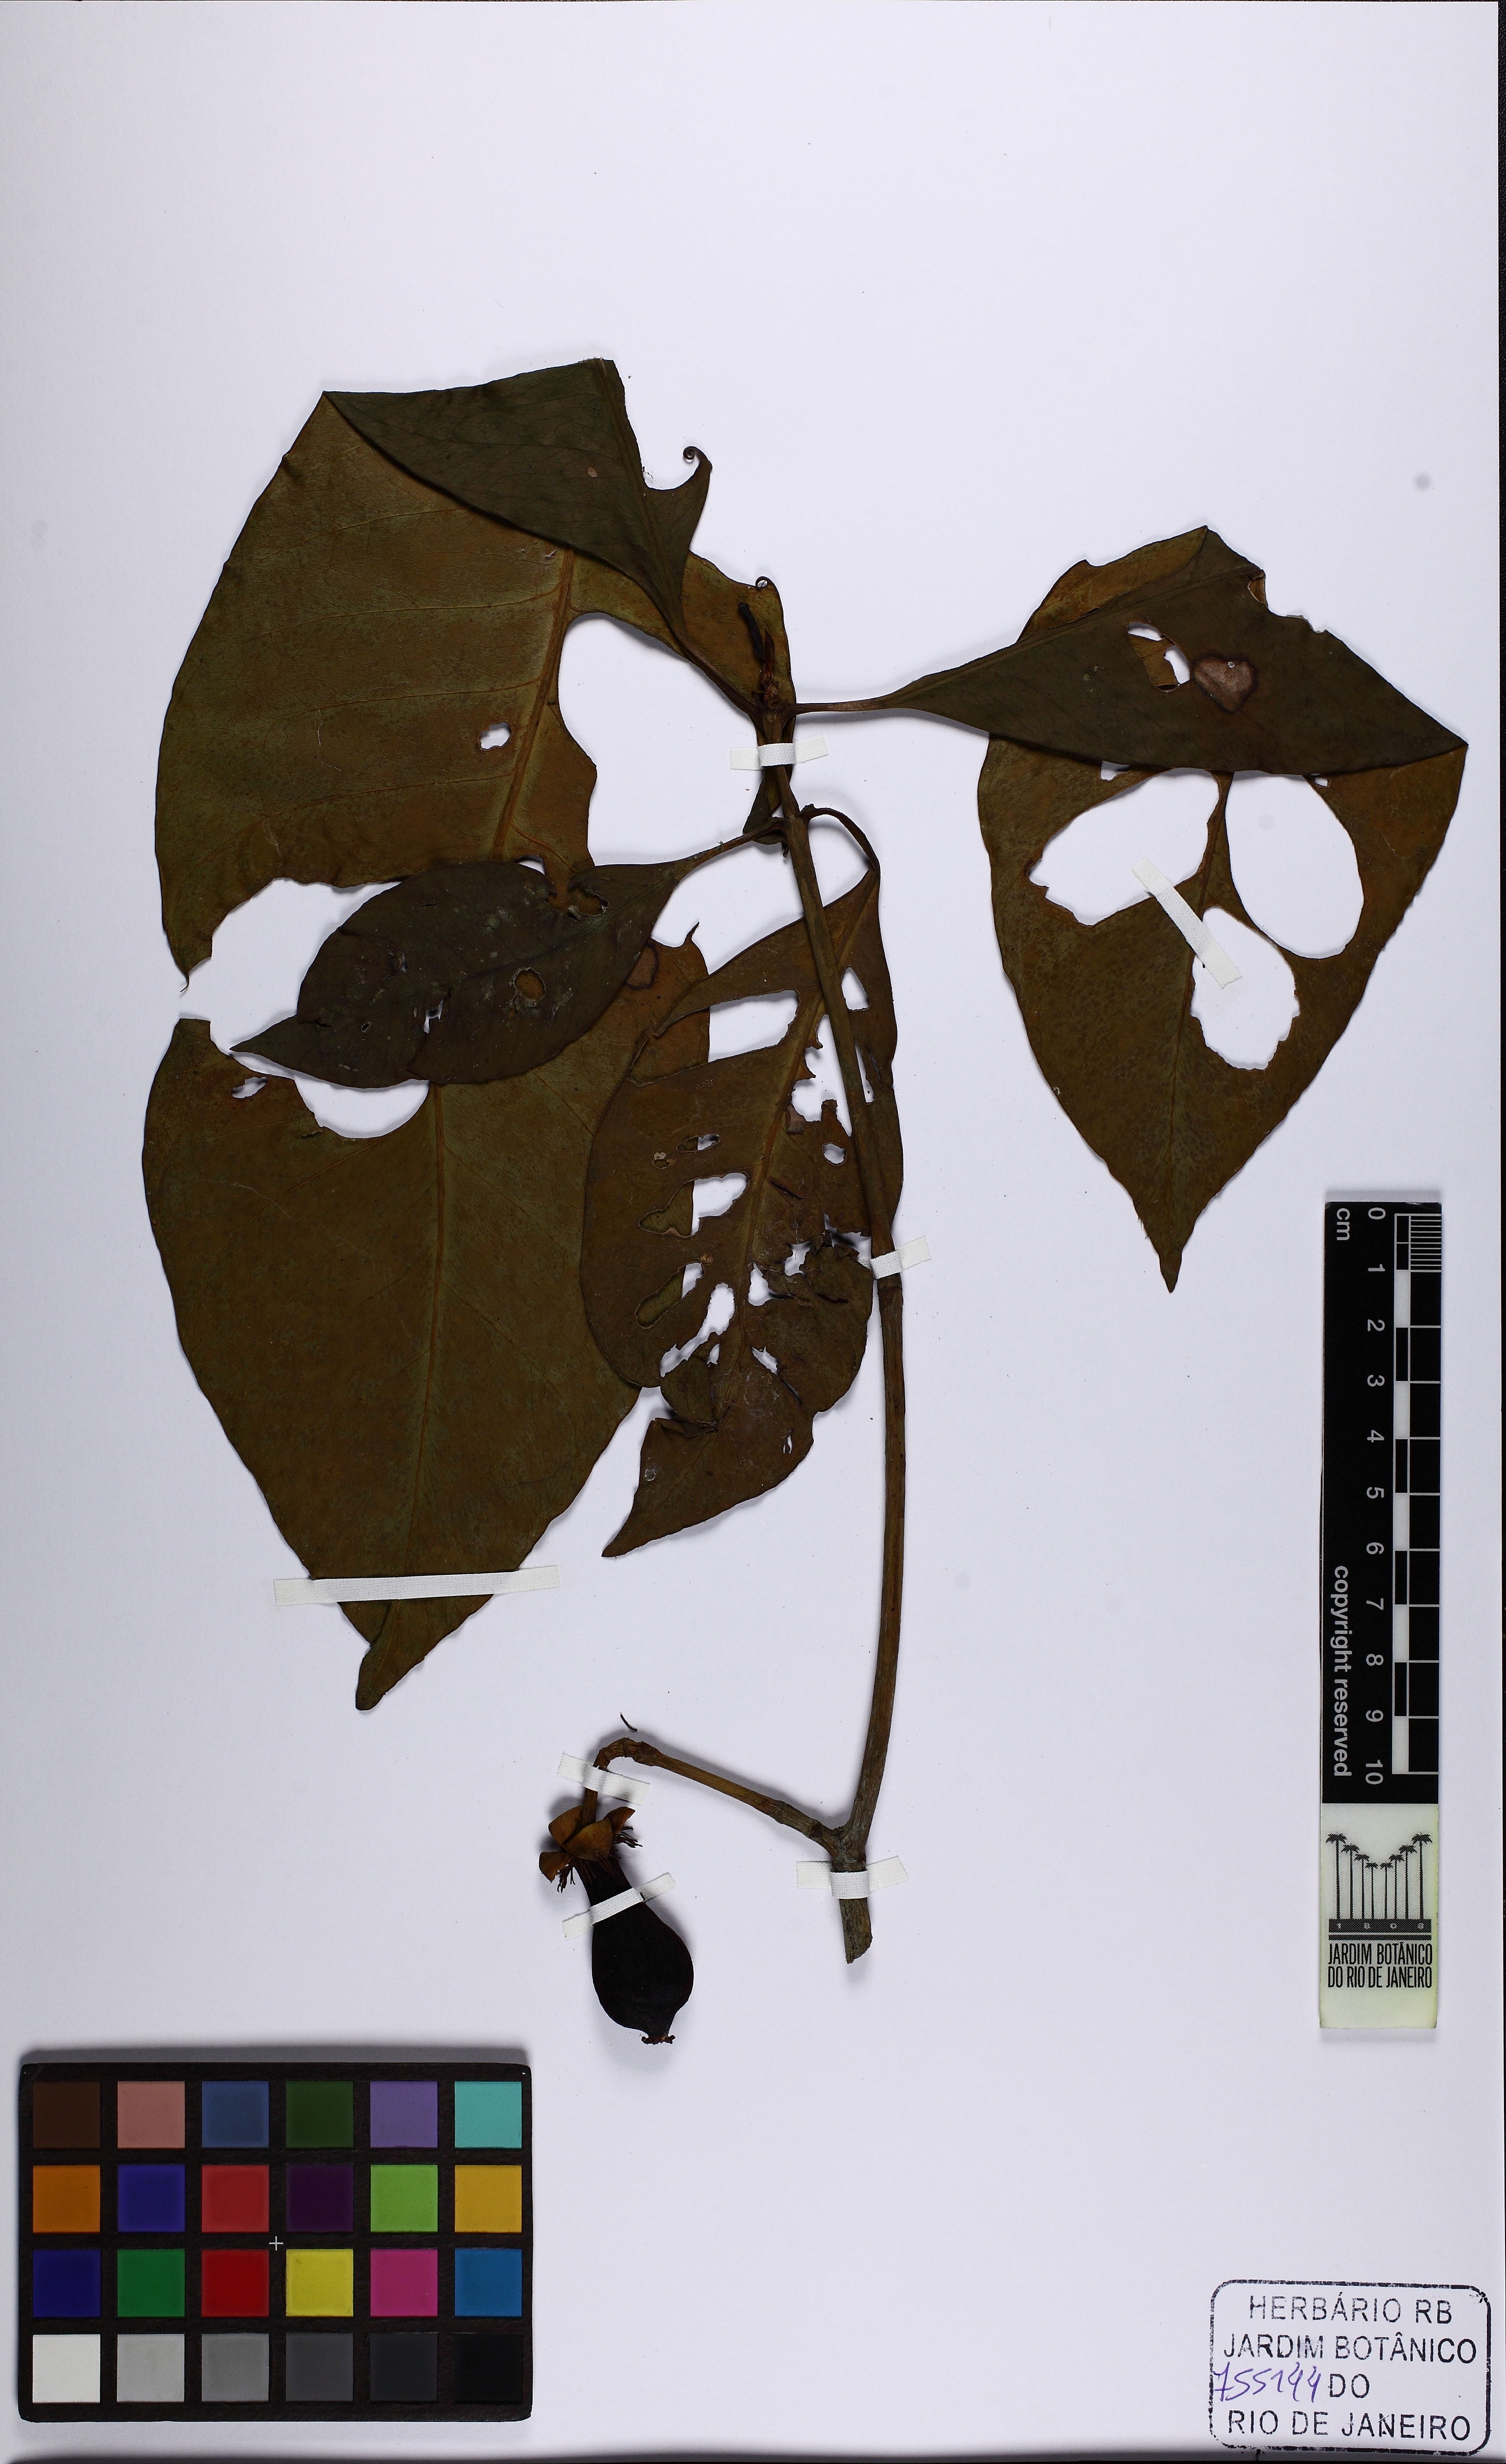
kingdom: Plantae
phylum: Tracheophyta
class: Magnoliopsida
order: Malpighiales
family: Clusiaceae
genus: Tovomita
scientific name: Tovomita laurina
